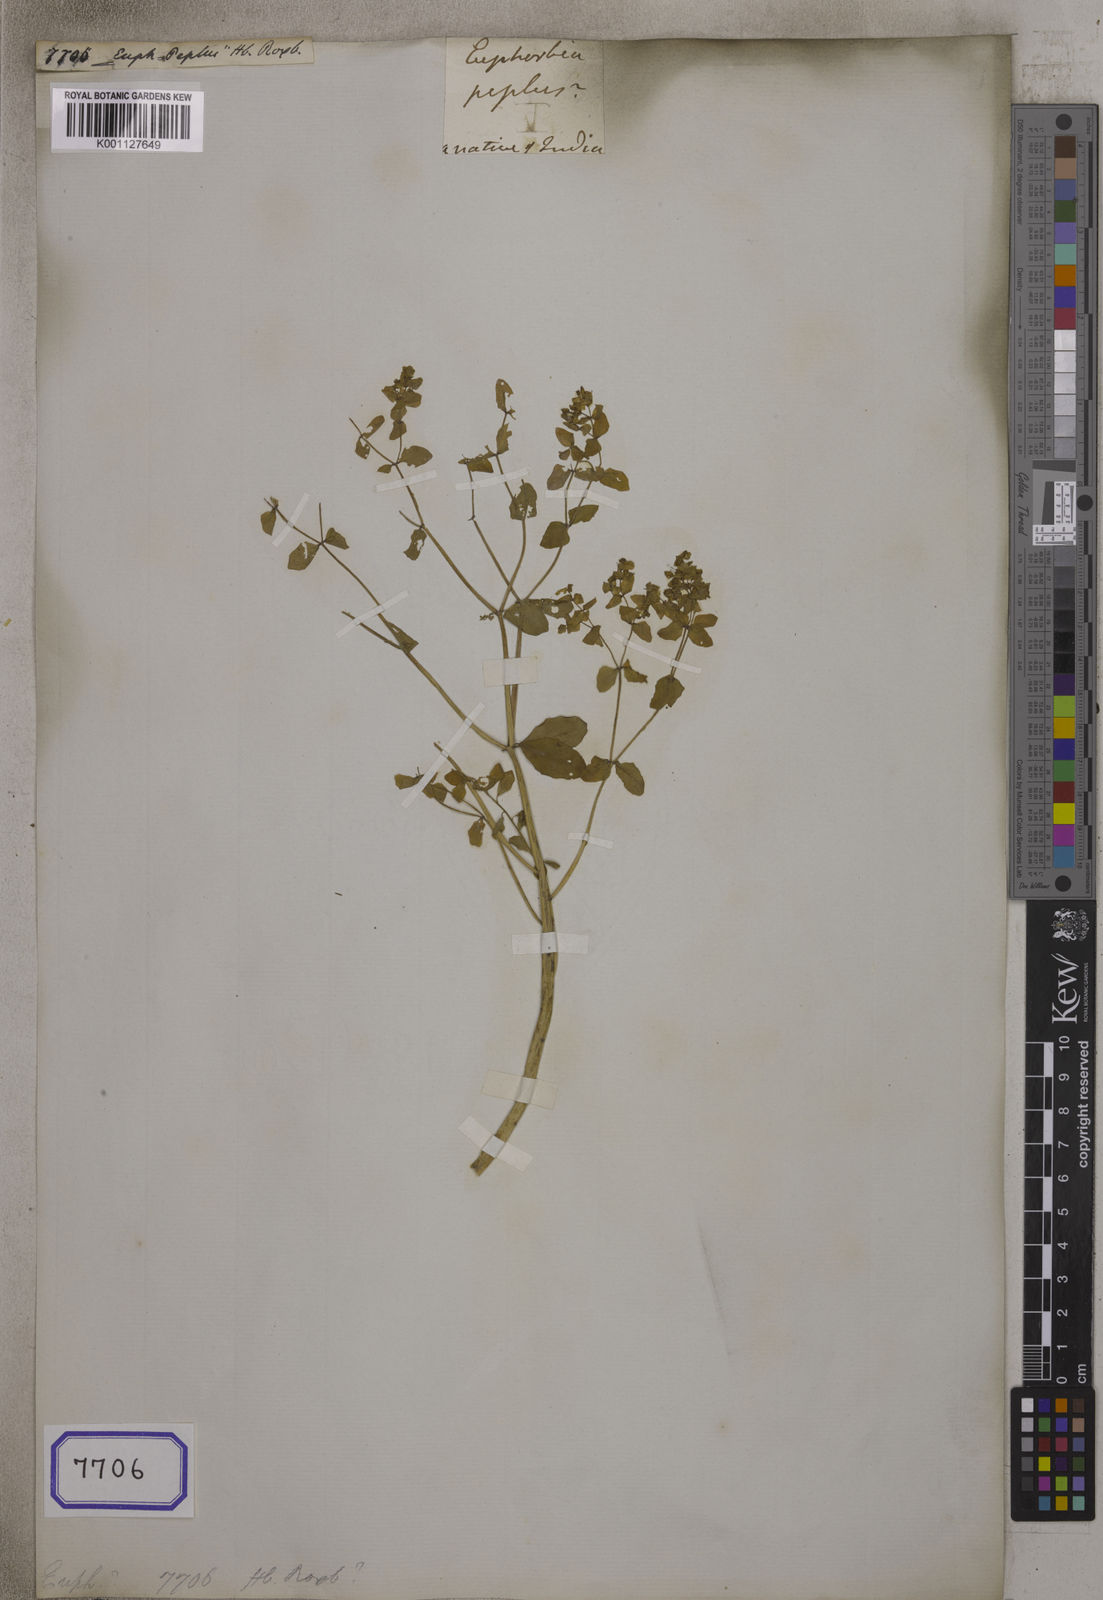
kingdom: Plantae
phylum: Tracheophyta
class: Magnoliopsida
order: Malpighiales
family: Euphorbiaceae
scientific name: Euphorbiaceae
